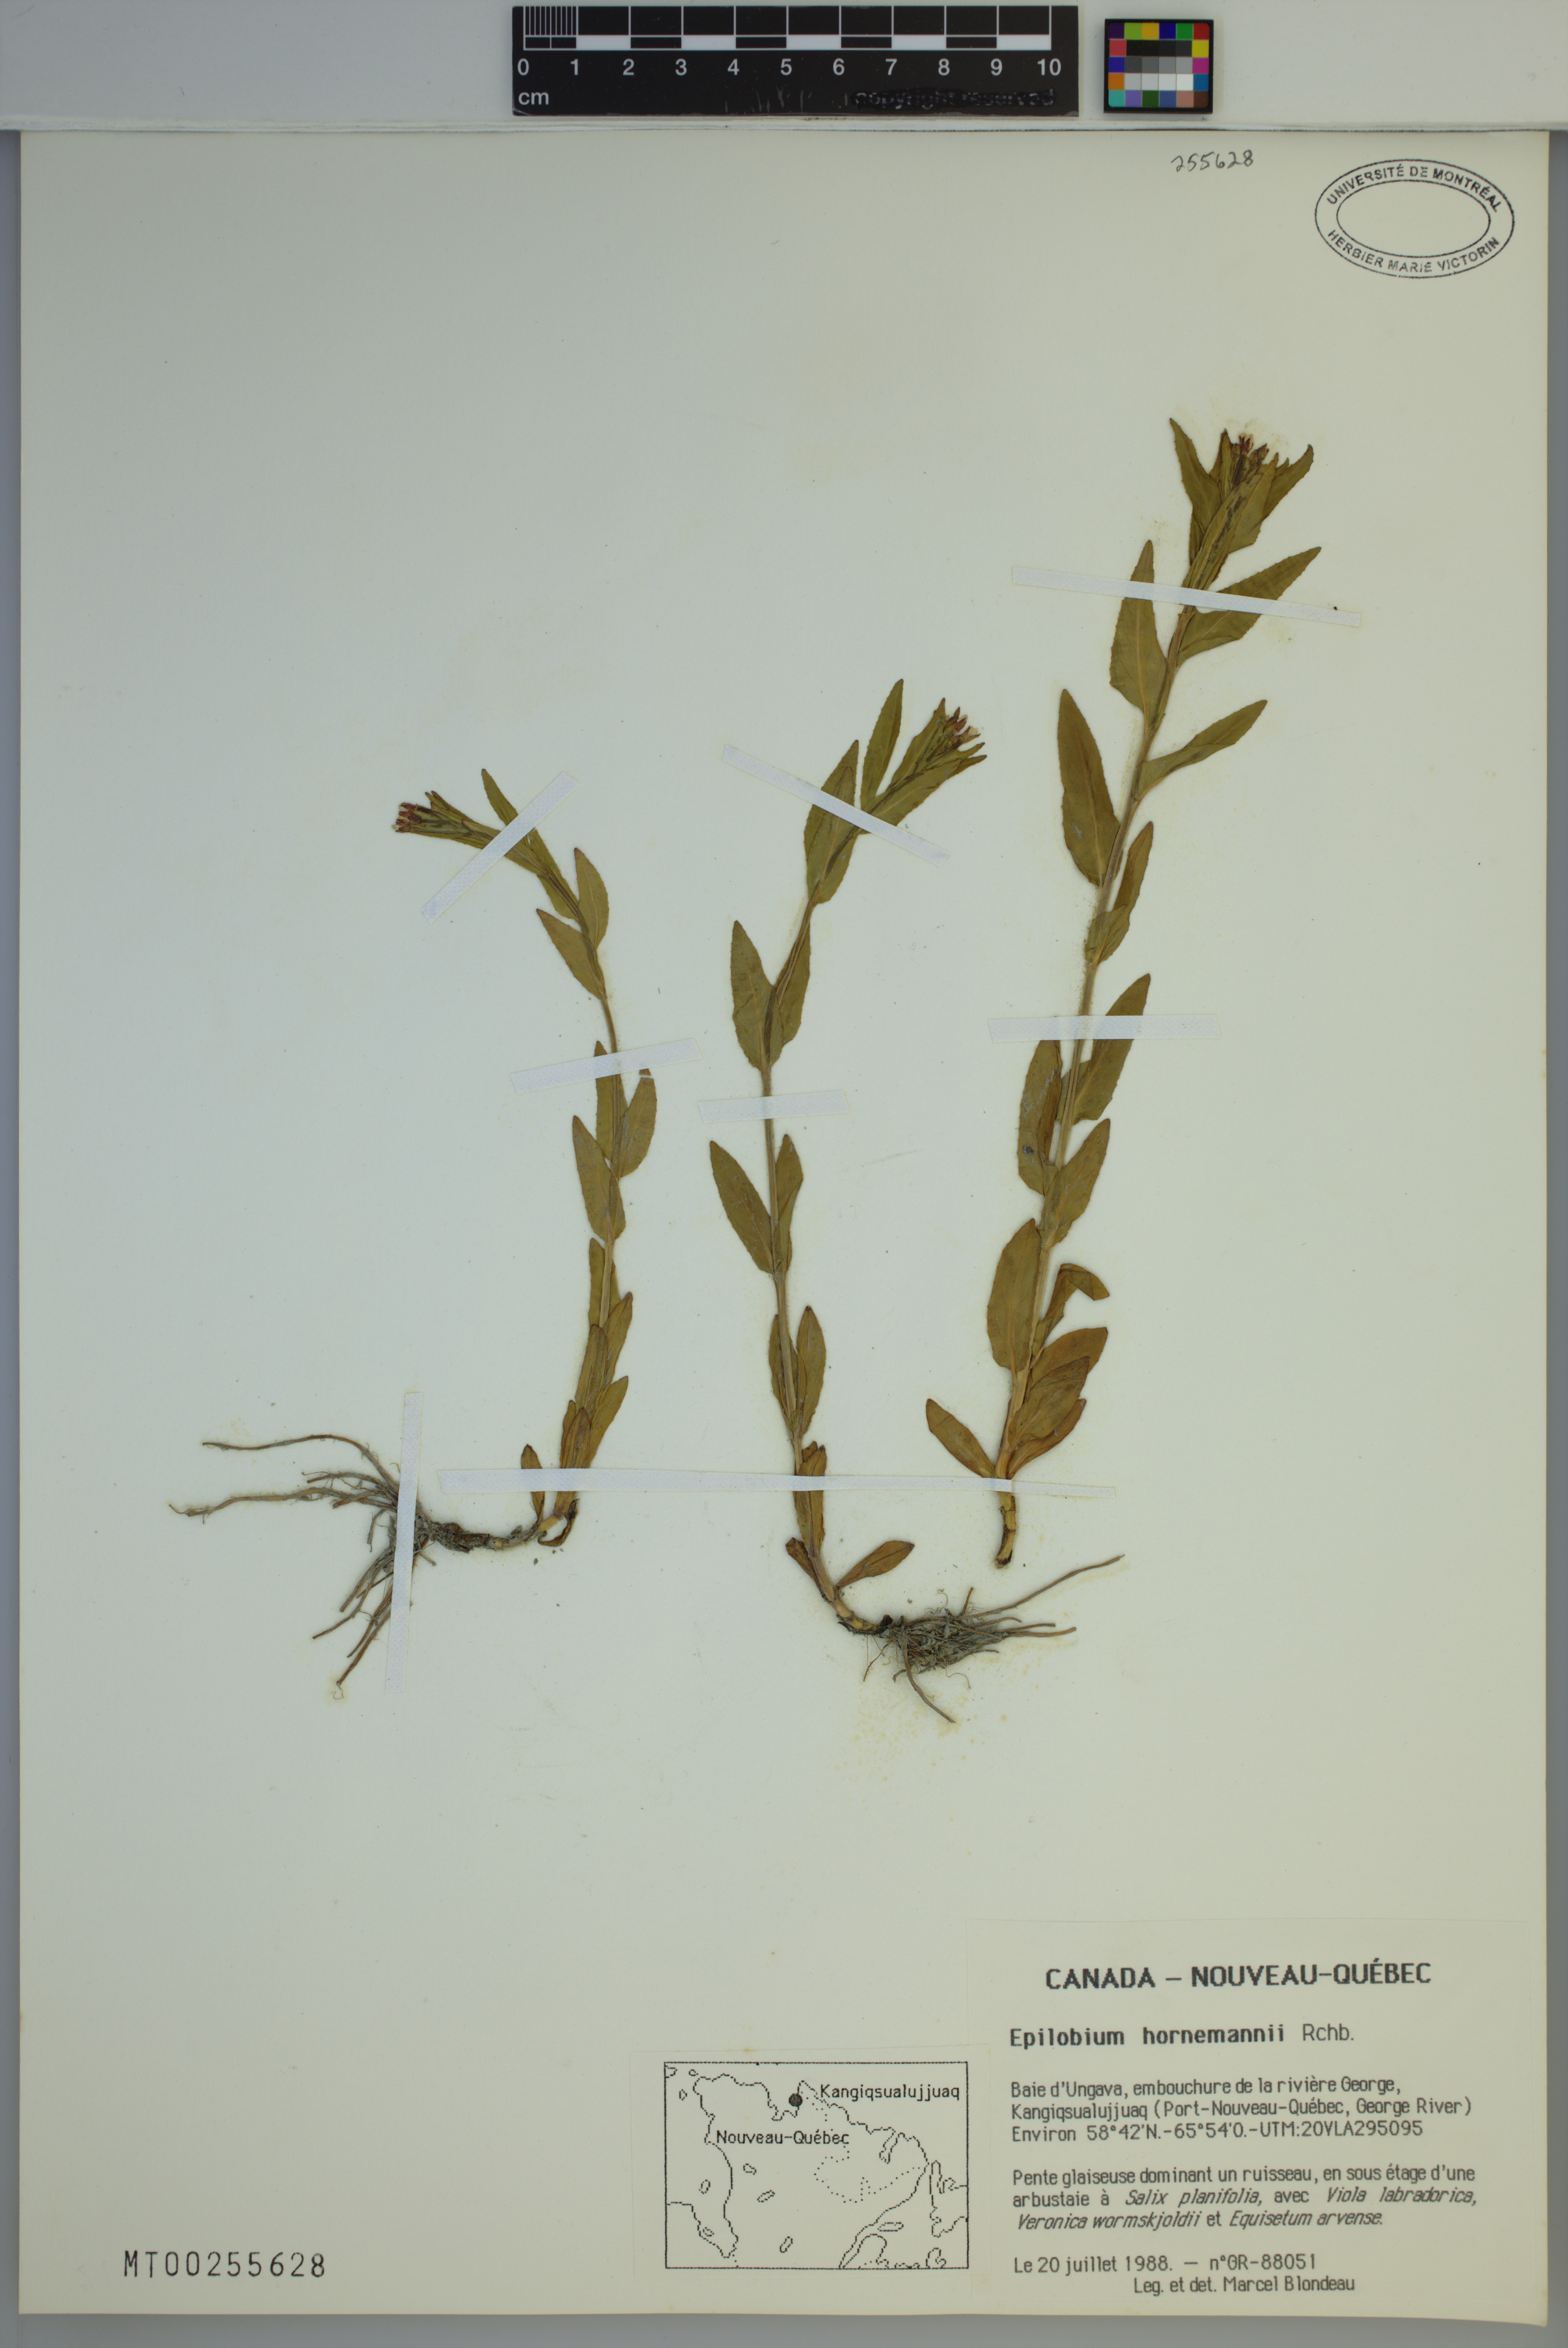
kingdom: Plantae
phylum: Tracheophyta
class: Magnoliopsida
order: Myrtales
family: Onagraceae
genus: Epilobium
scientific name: Epilobium hornemannii
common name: Hornemann's willowherb
